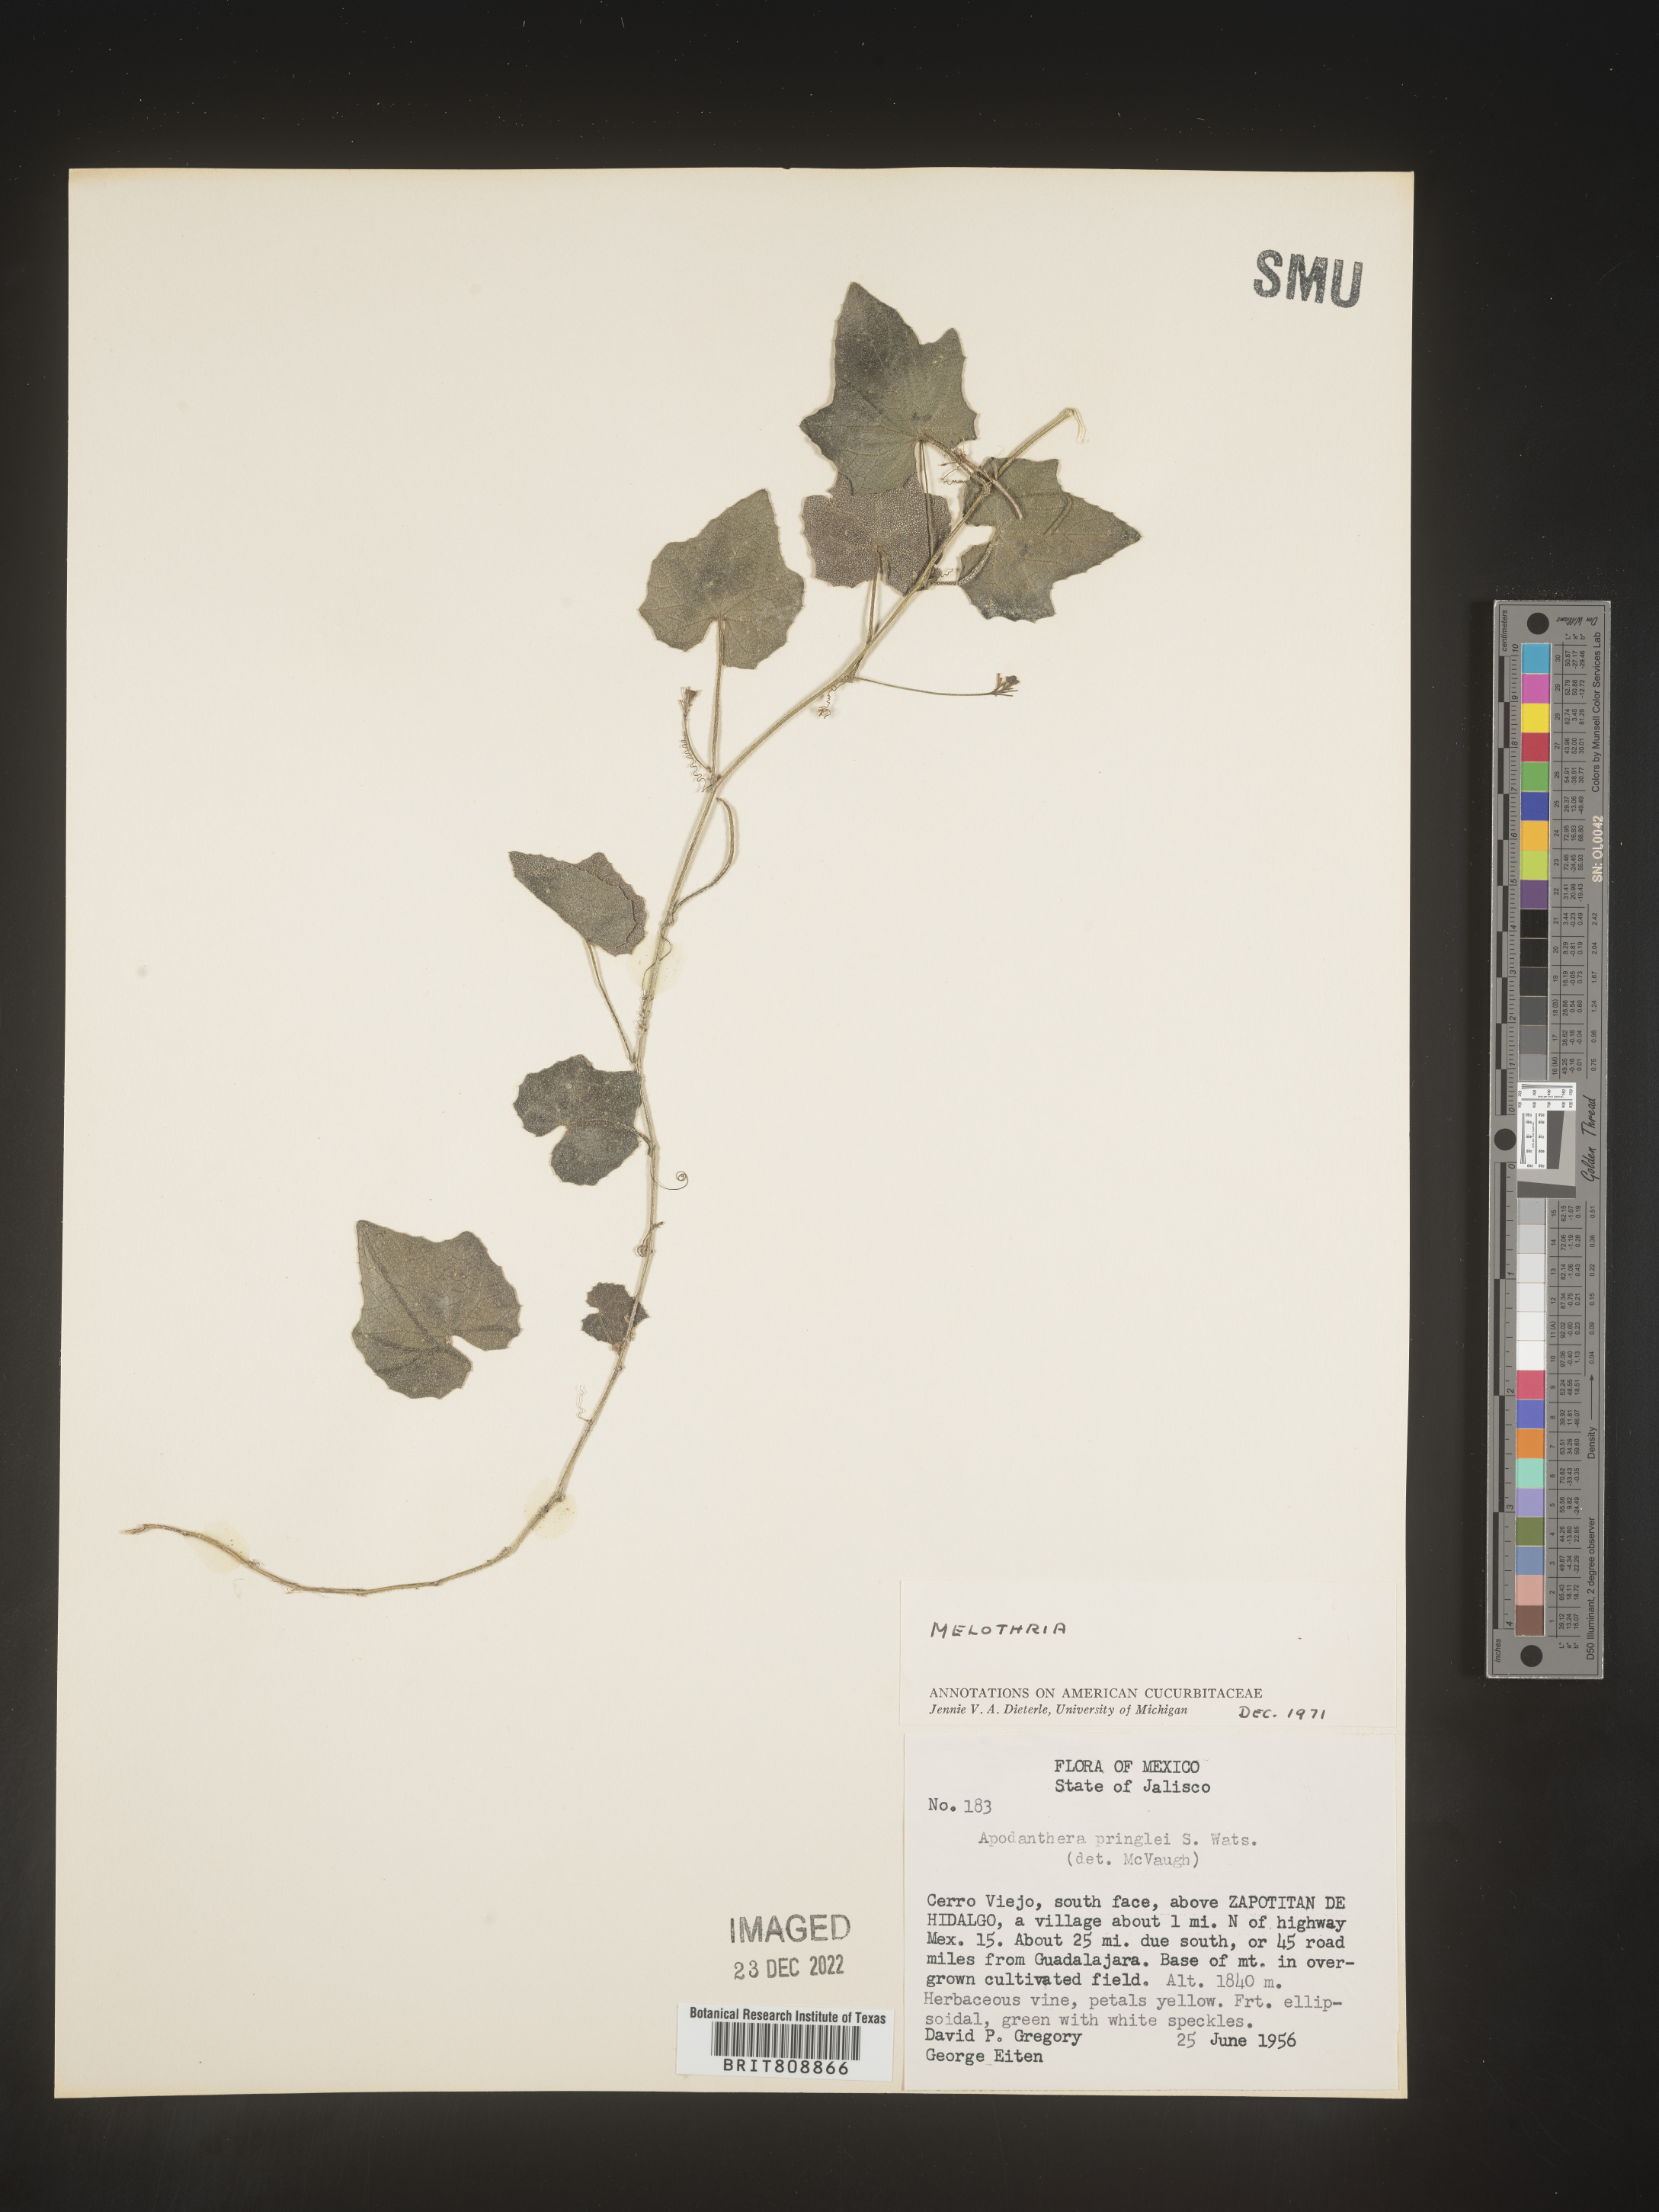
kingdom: Plantae
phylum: Tracheophyta
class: Magnoliopsida
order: Cucurbitales
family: Cucurbitaceae
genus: Melothria
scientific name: Melothria
